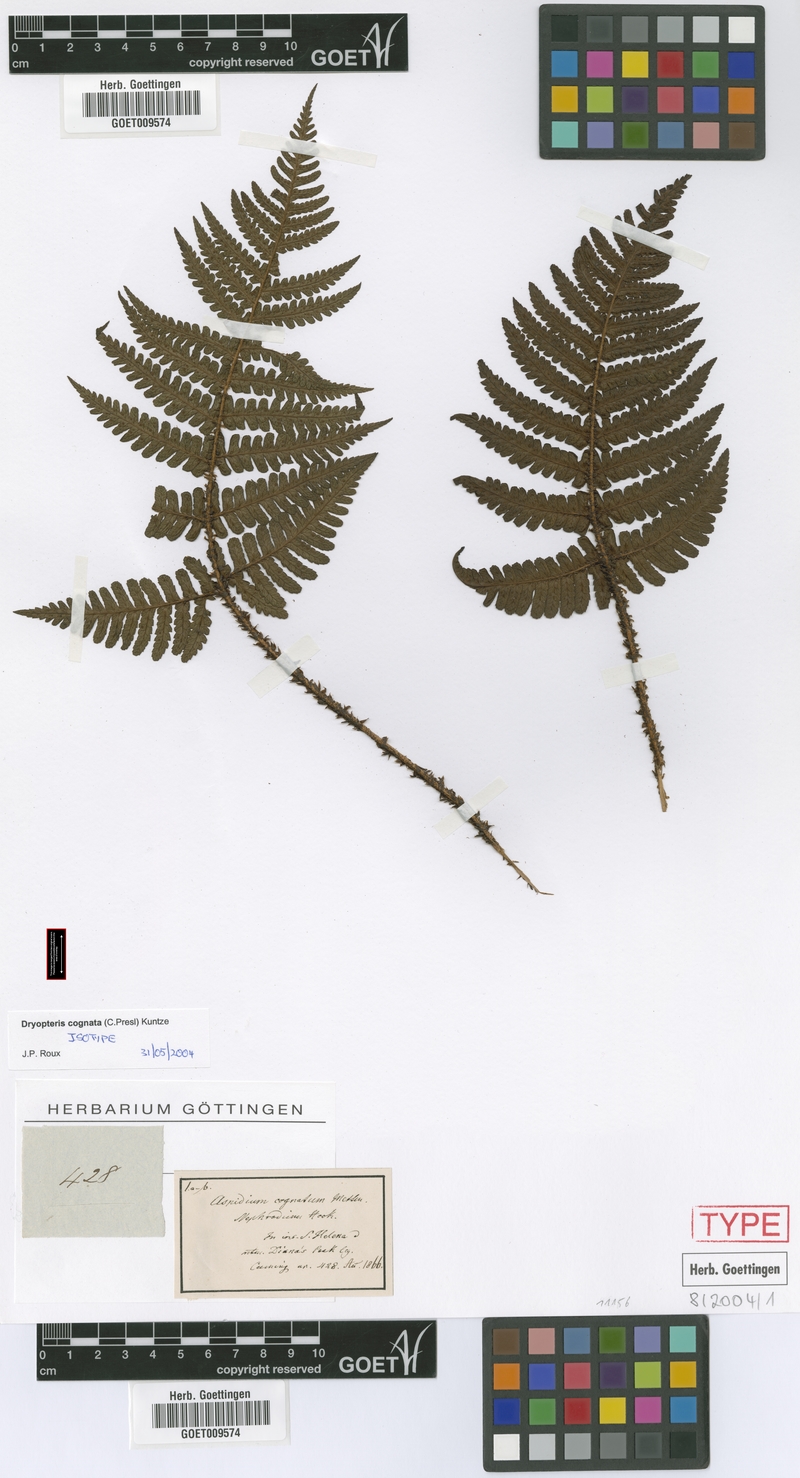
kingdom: Plantae
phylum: Tracheophyta
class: Polypodiopsida
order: Polypodiales
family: Dryopteridaceae
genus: Dryopteris
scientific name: Dryopteris cognata
